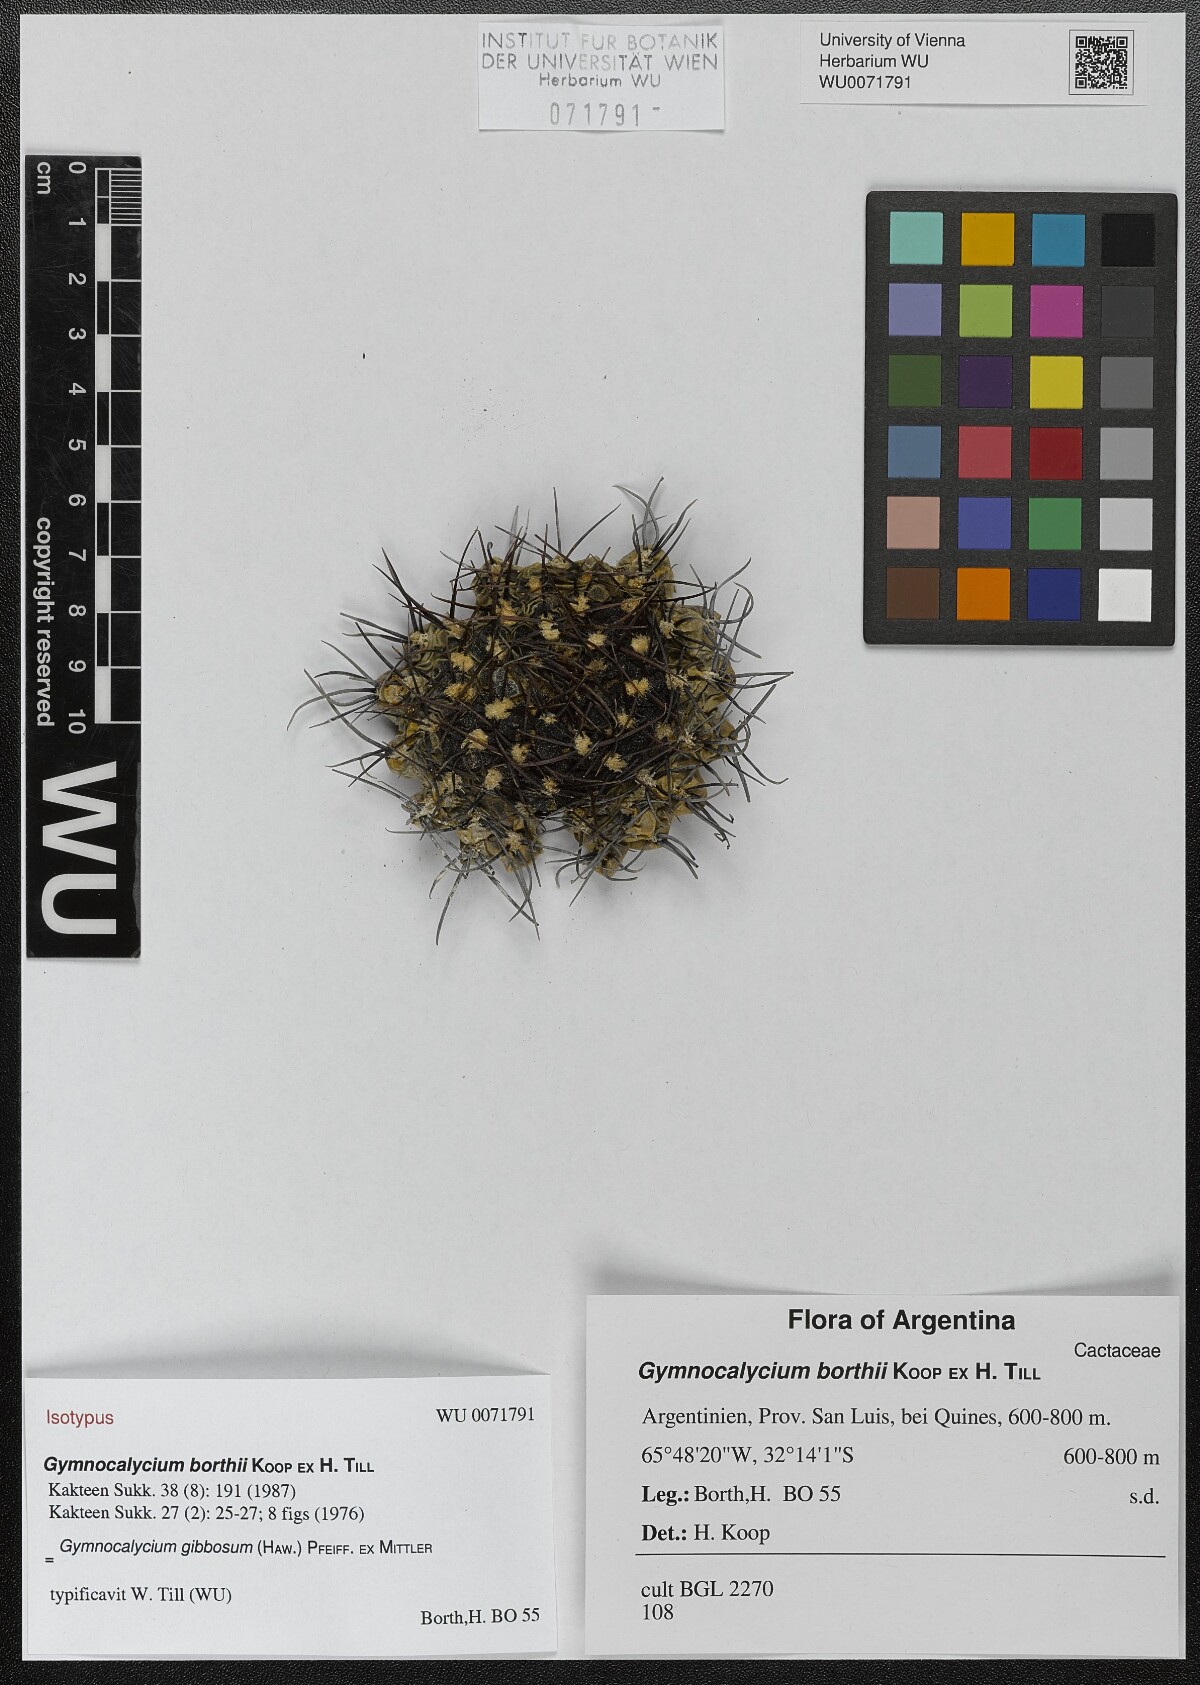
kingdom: Plantae
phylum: Tracheophyta
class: Magnoliopsida
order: Caryophyllales
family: Cactaceae
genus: Gymnocalycium
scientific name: Gymnocalycium gibbosum
